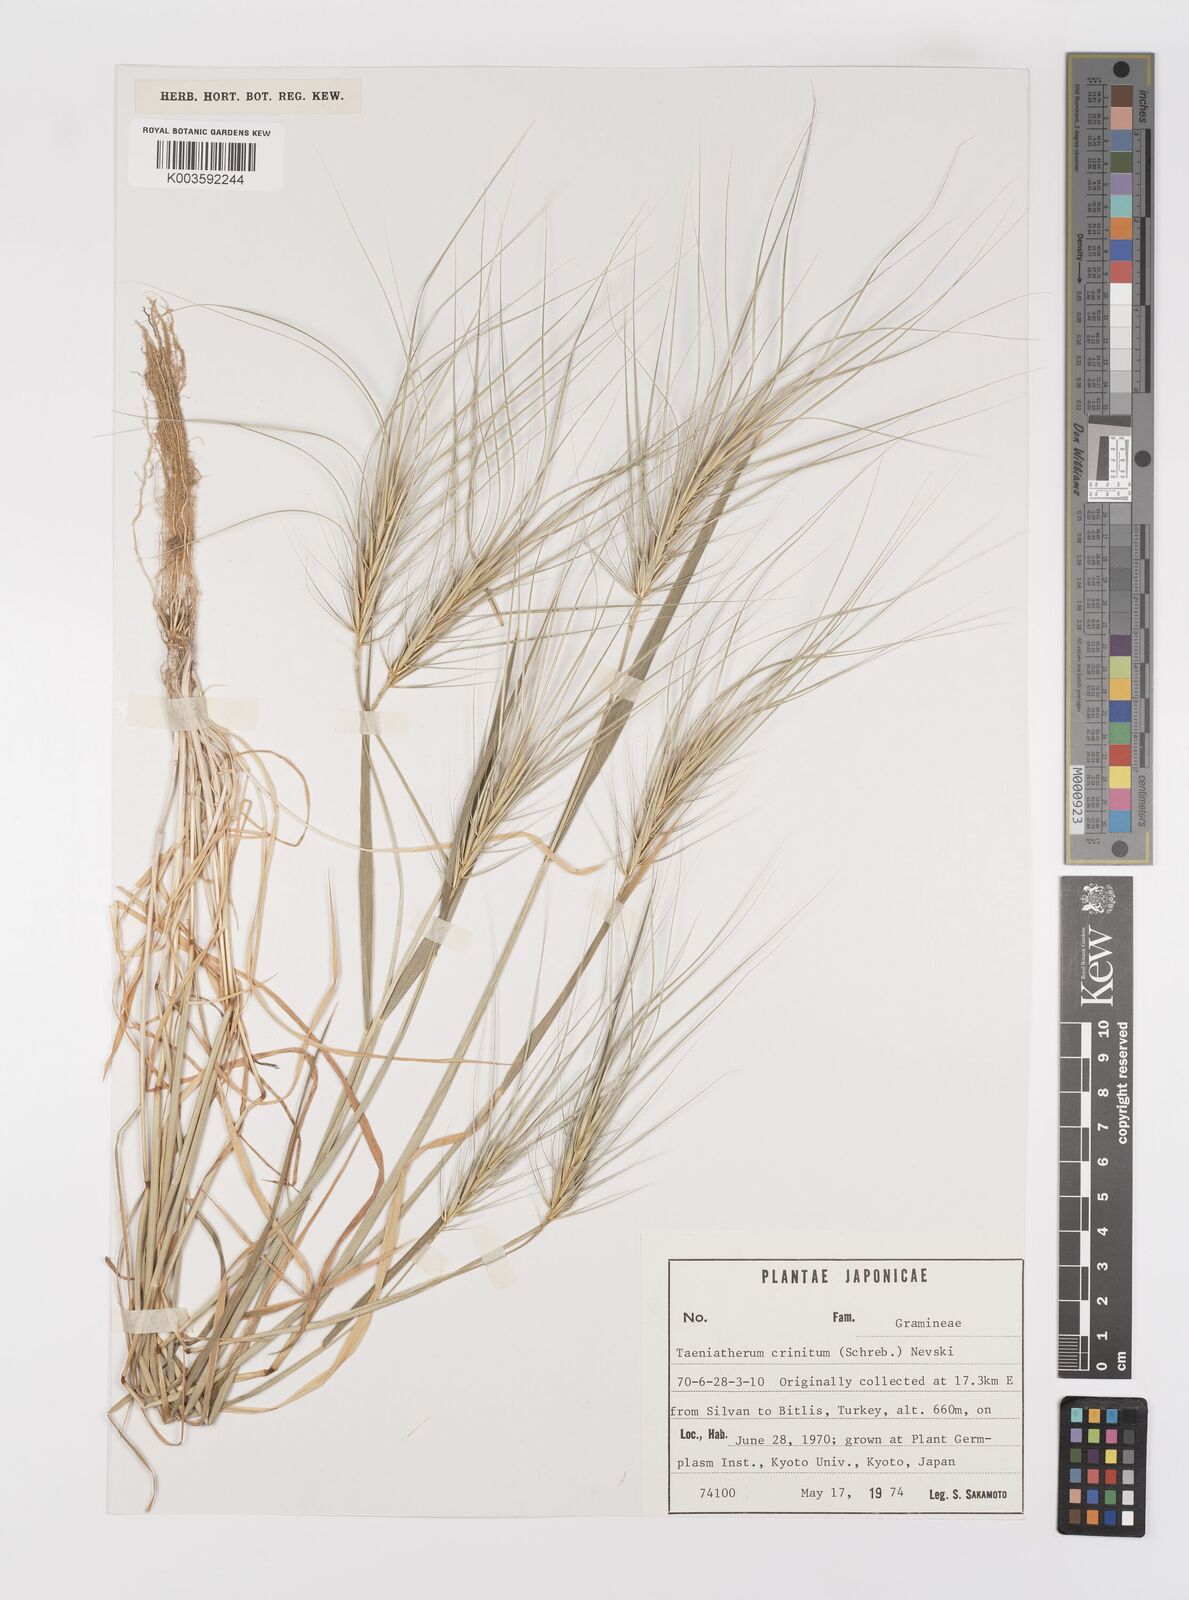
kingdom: Plantae
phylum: Tracheophyta
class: Liliopsida
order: Poales
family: Poaceae
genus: Taeniatherum
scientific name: Taeniatherum caput-medusae
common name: Medusahead
